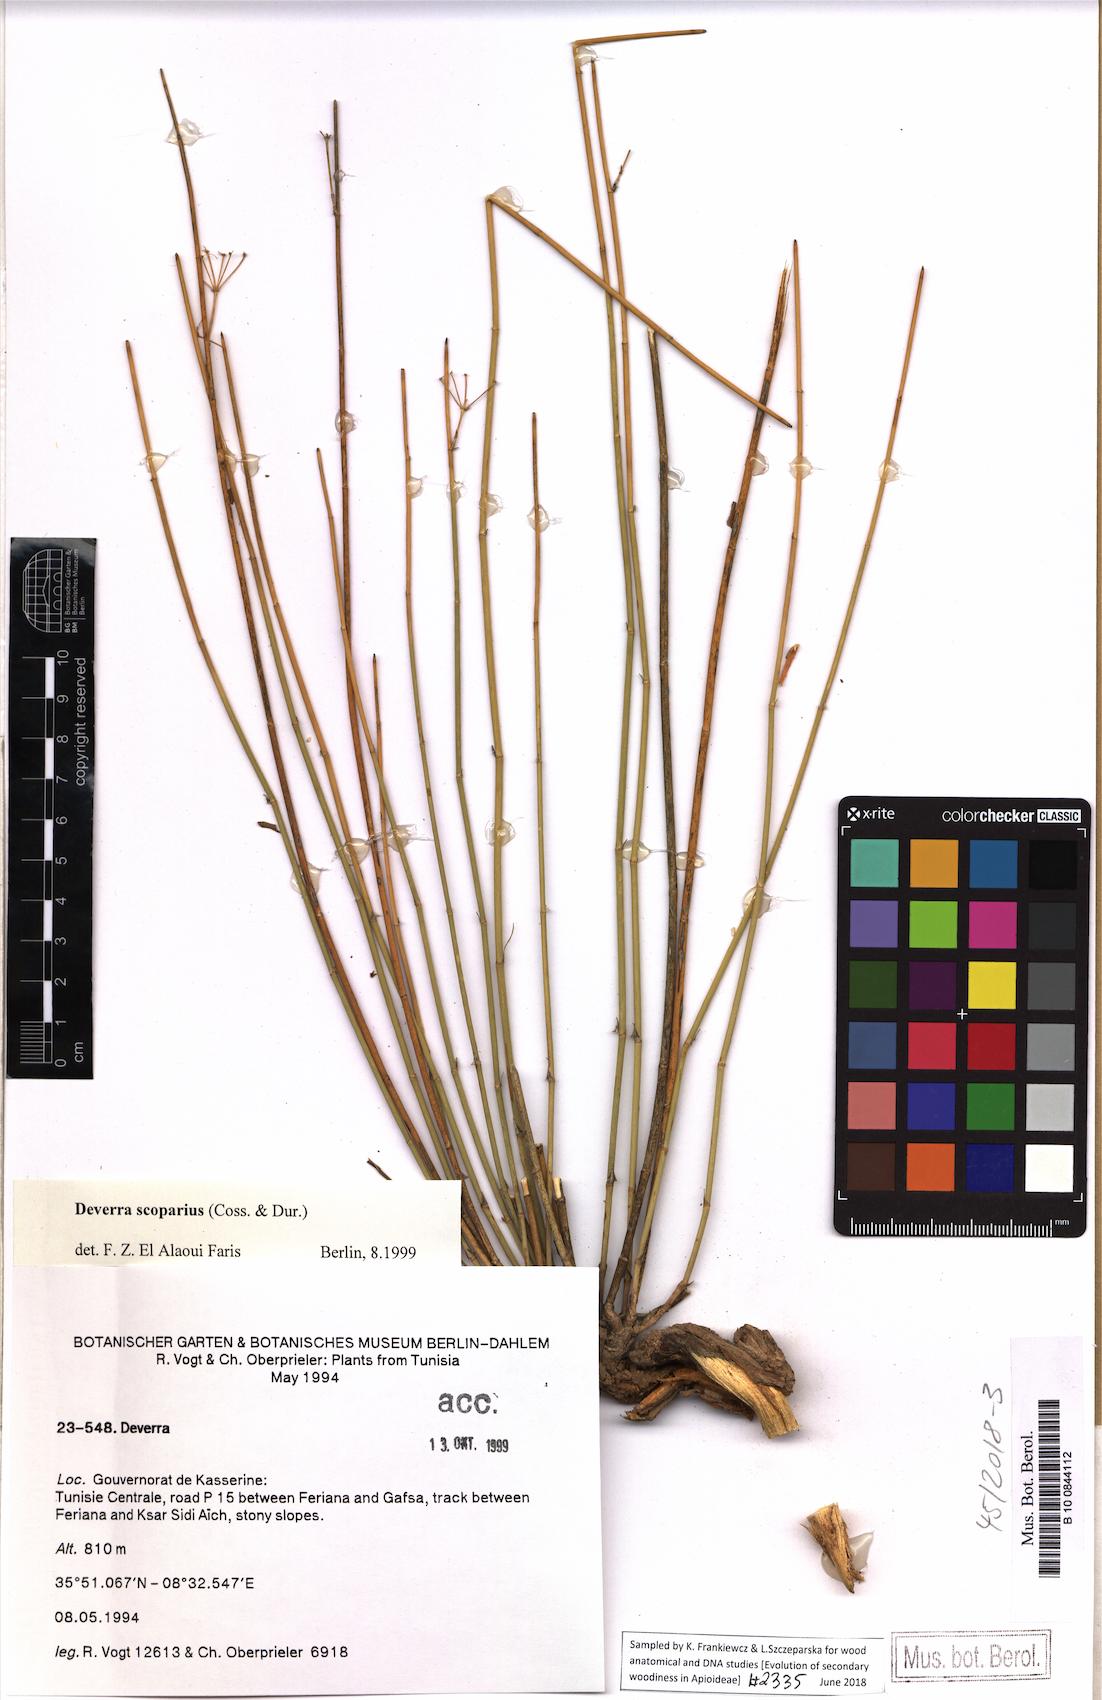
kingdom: Plantae
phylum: Tracheophyta
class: Magnoliopsida
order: Apiales
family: Apiaceae
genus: Deverra
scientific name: Deverra scoparia
